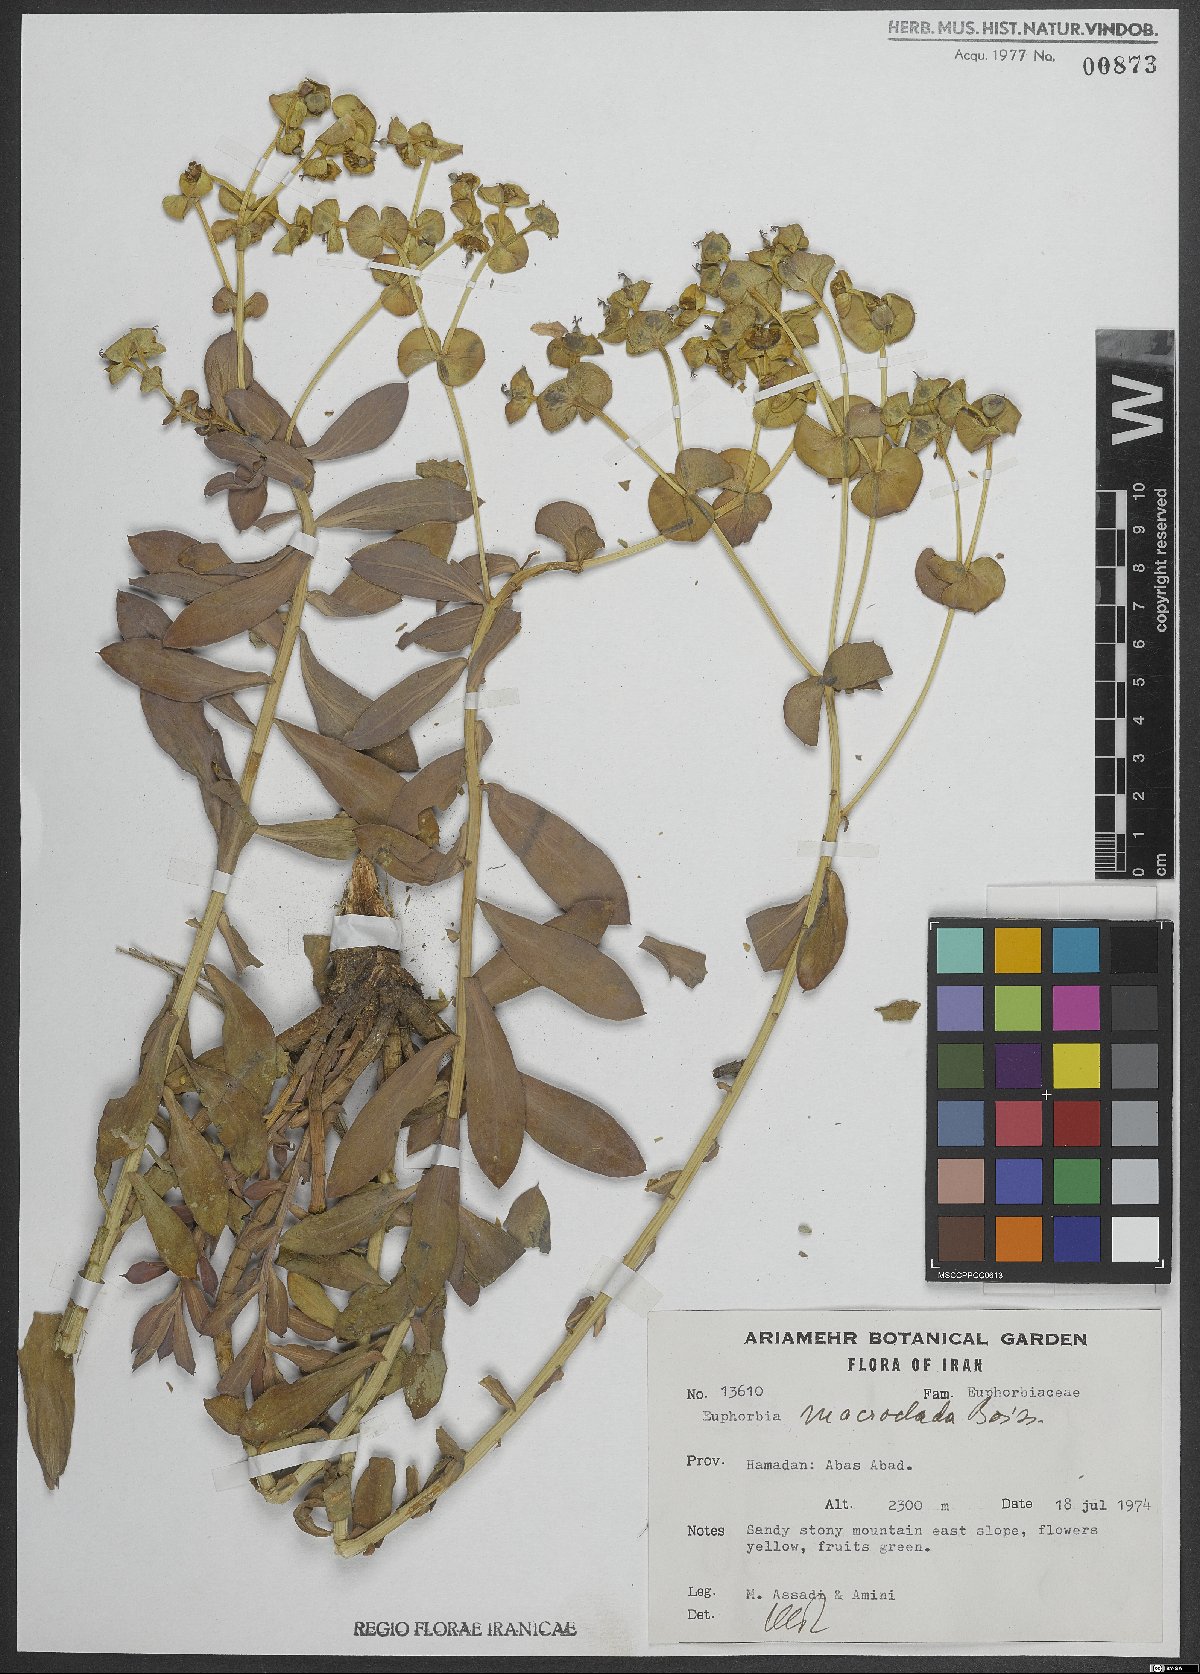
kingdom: Plantae
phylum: Tracheophyta
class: Magnoliopsida
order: Malpighiales
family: Euphorbiaceae
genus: Euphorbia
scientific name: Euphorbia macroclada
